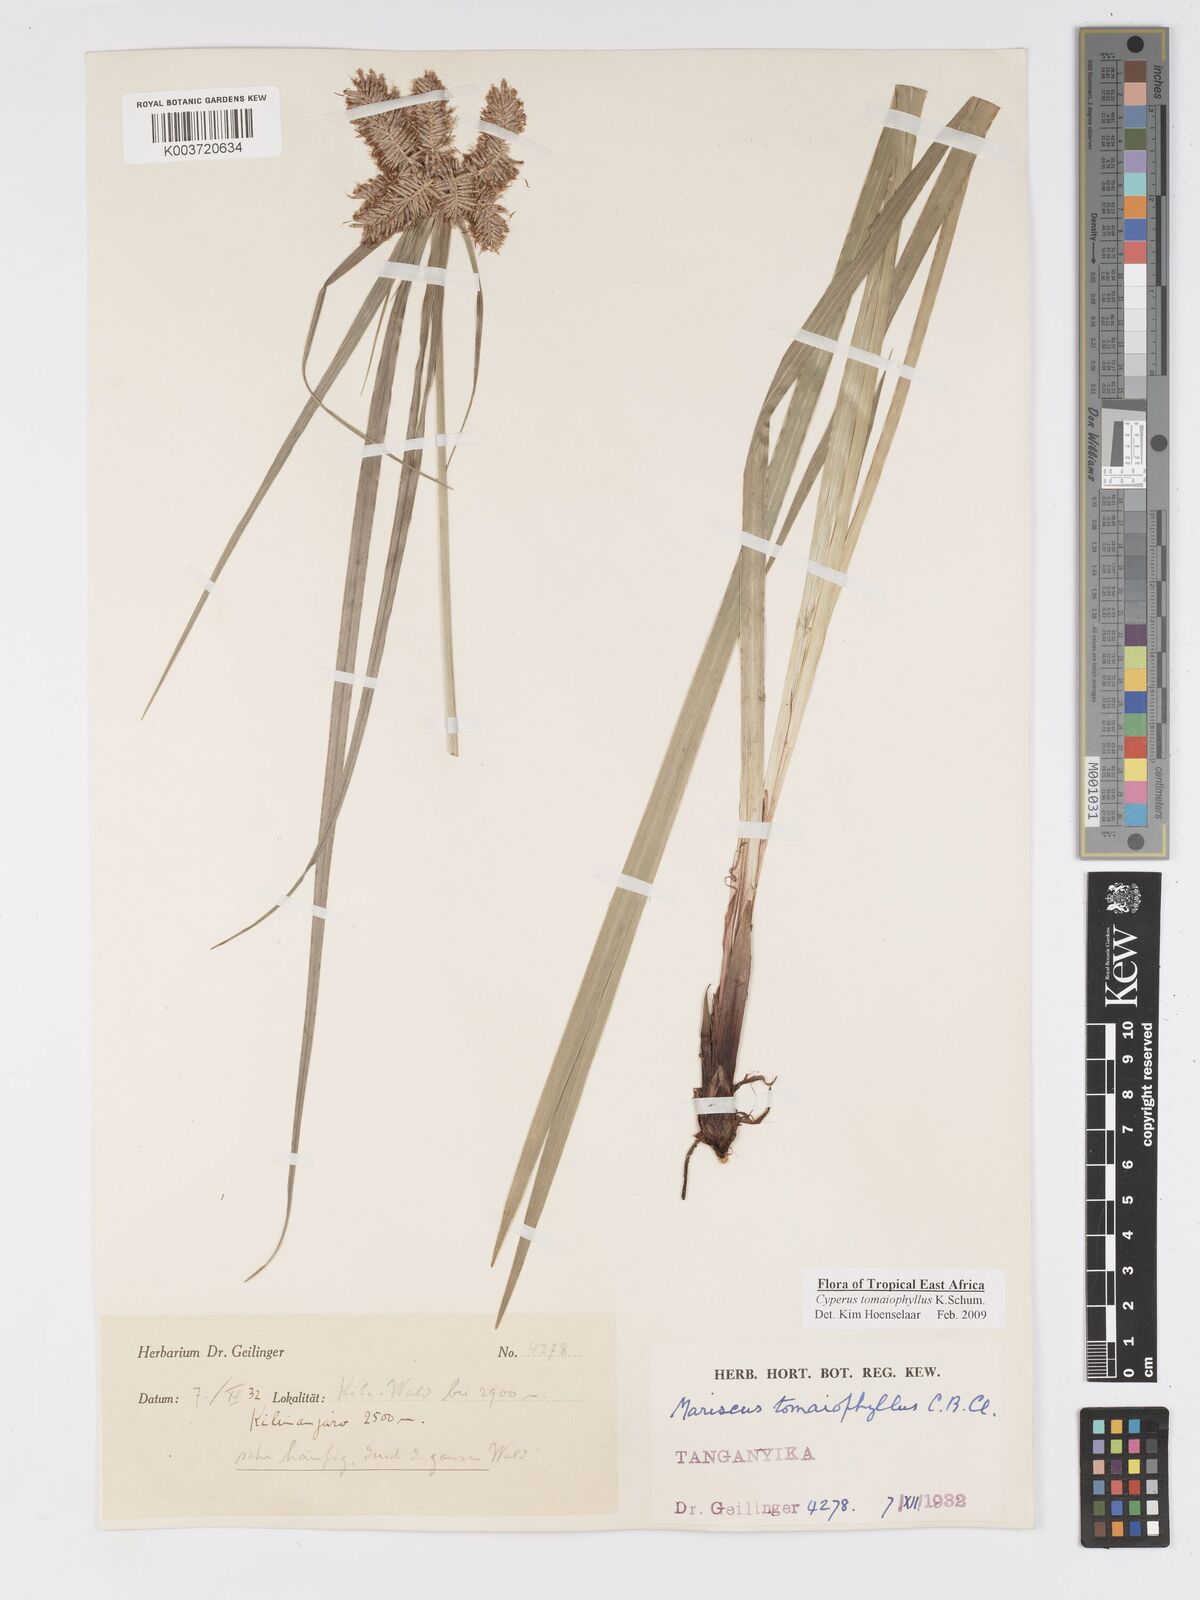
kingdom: Plantae
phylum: Tracheophyta
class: Liliopsida
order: Poales
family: Cyperaceae
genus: Cyperus
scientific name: Cyperus tomaiophyllus
